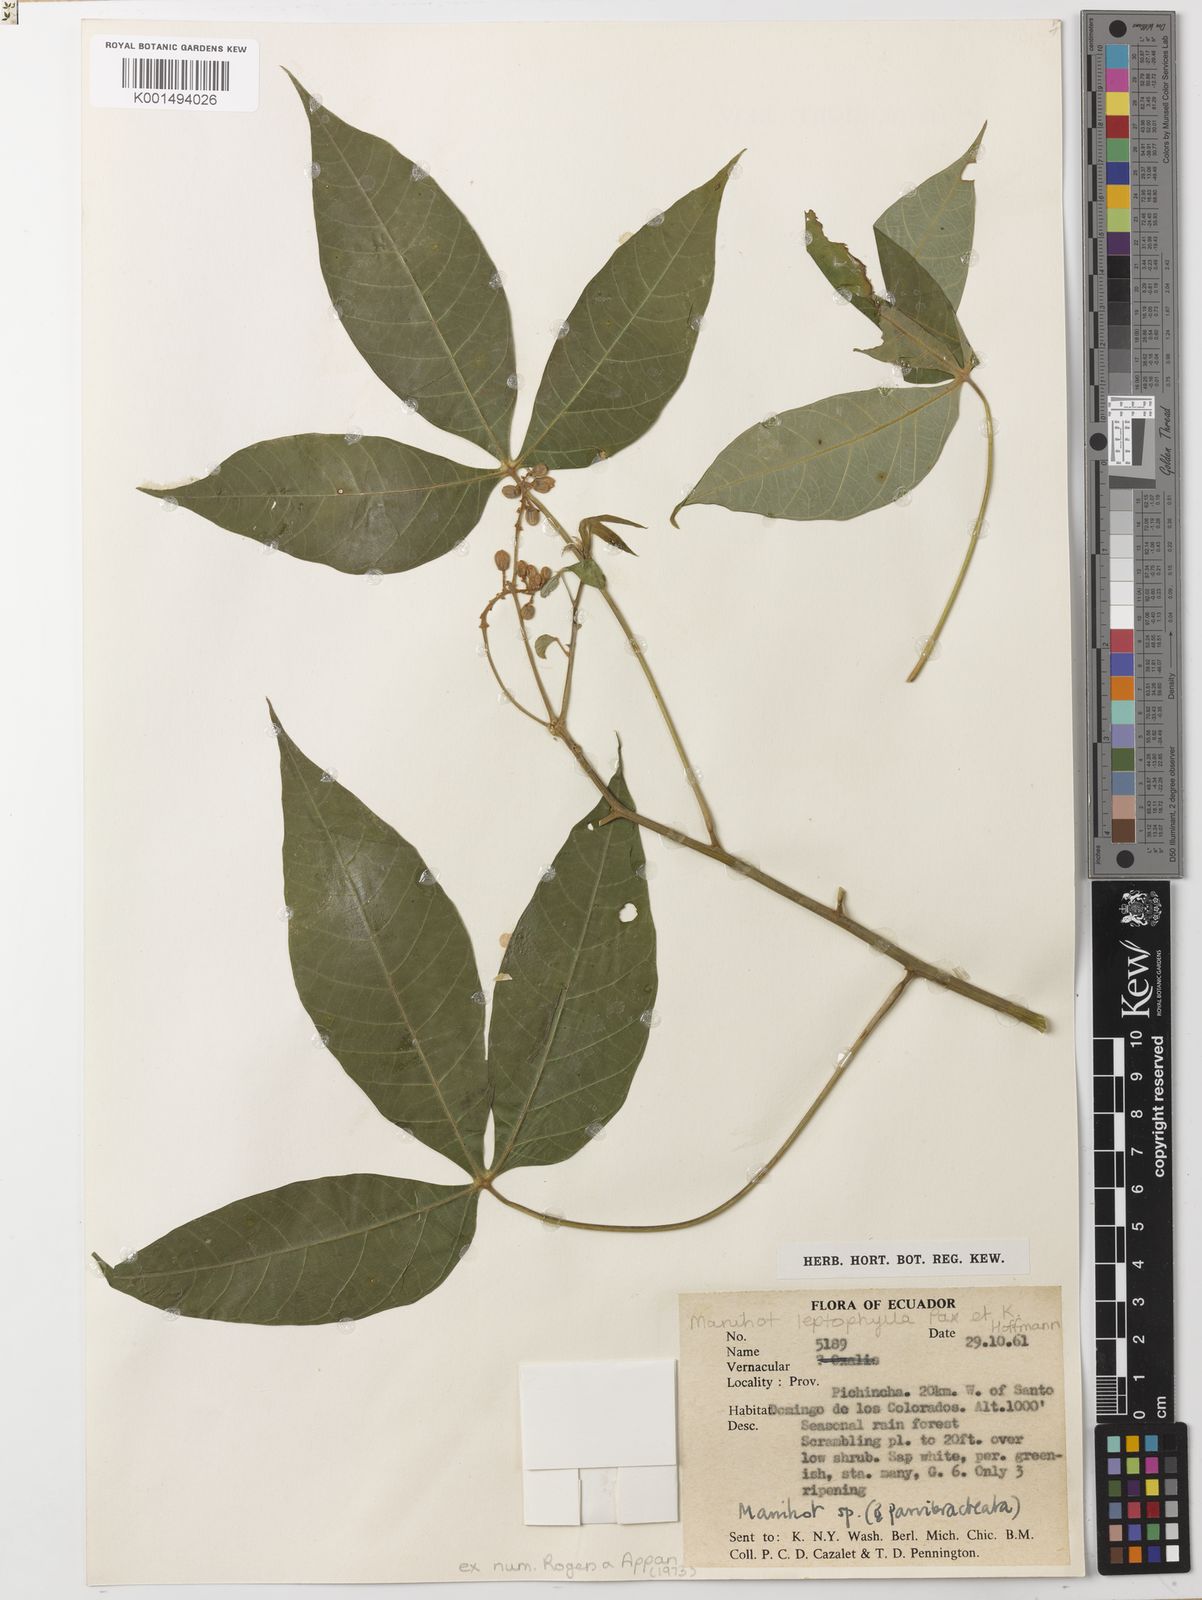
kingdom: Plantae
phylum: Tracheophyta
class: Magnoliopsida
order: Malpighiales
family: Euphorbiaceae
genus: Manihot
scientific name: Manihot leptophylla
